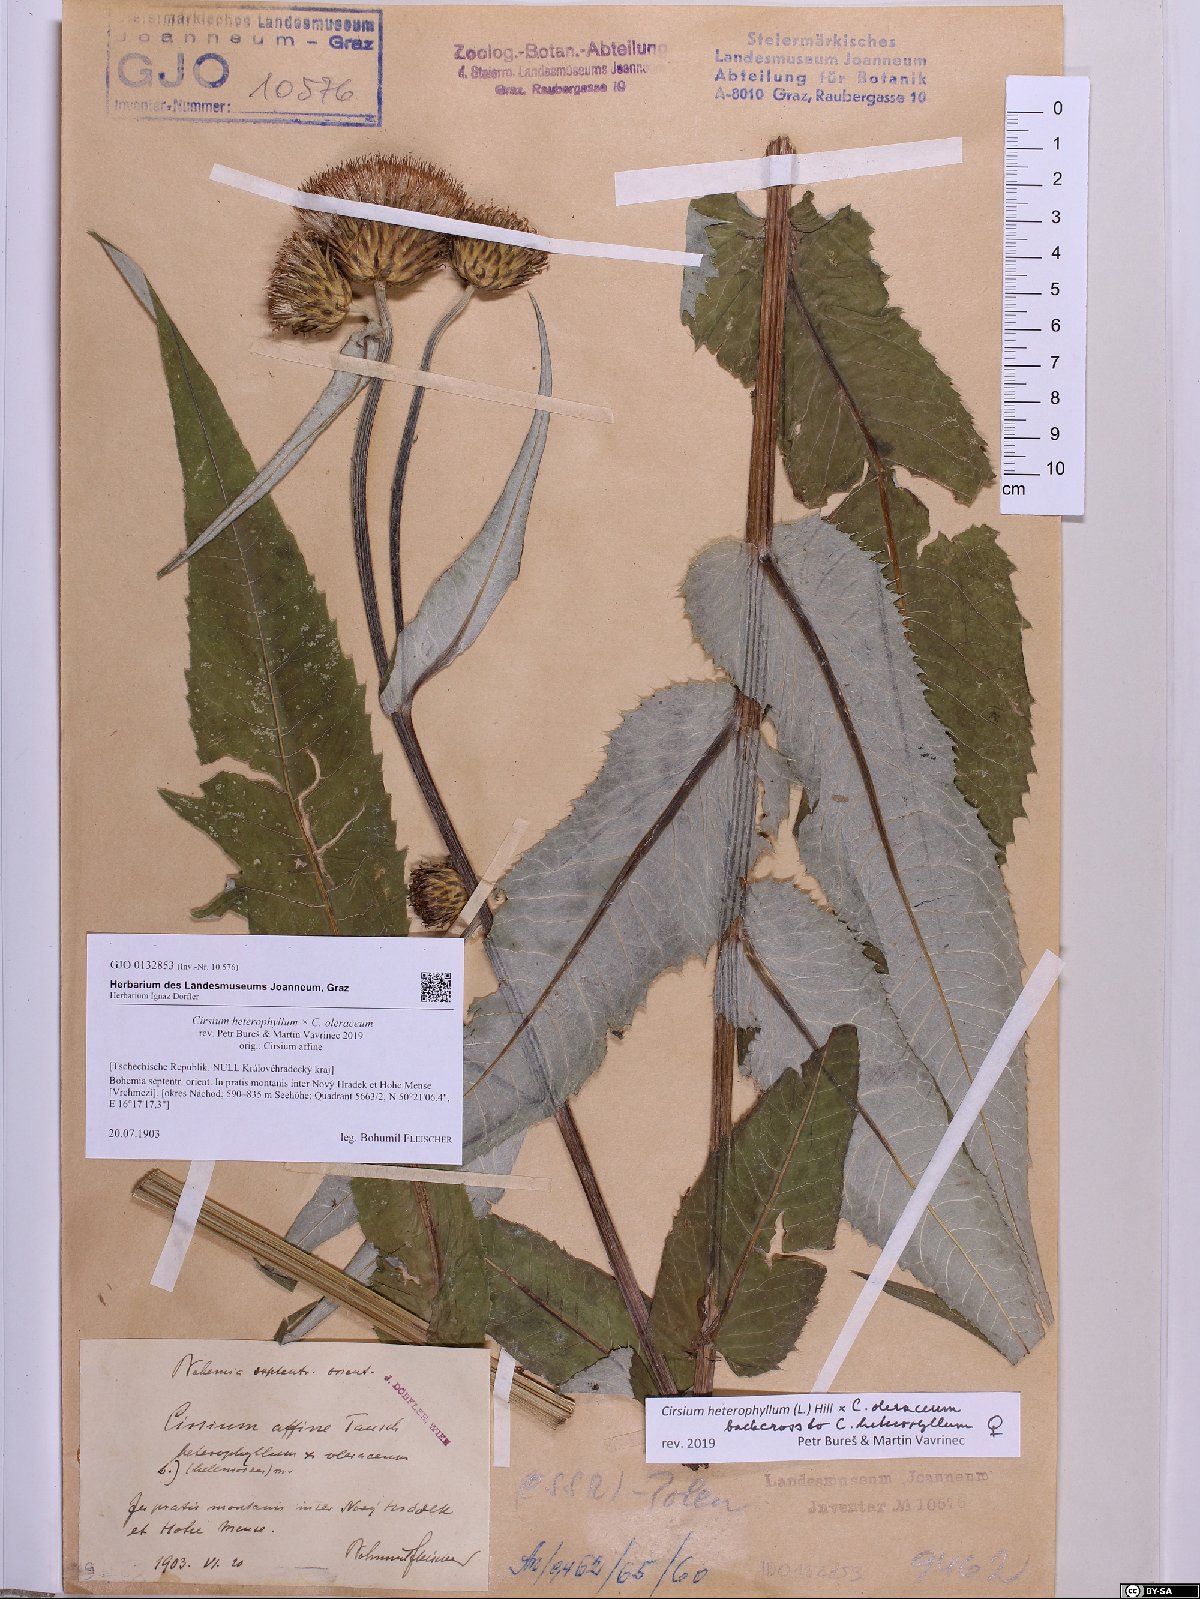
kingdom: Plantae
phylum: Tracheophyta
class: Magnoliopsida
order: Asterales
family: Asteraceae
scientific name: Asteraceae
